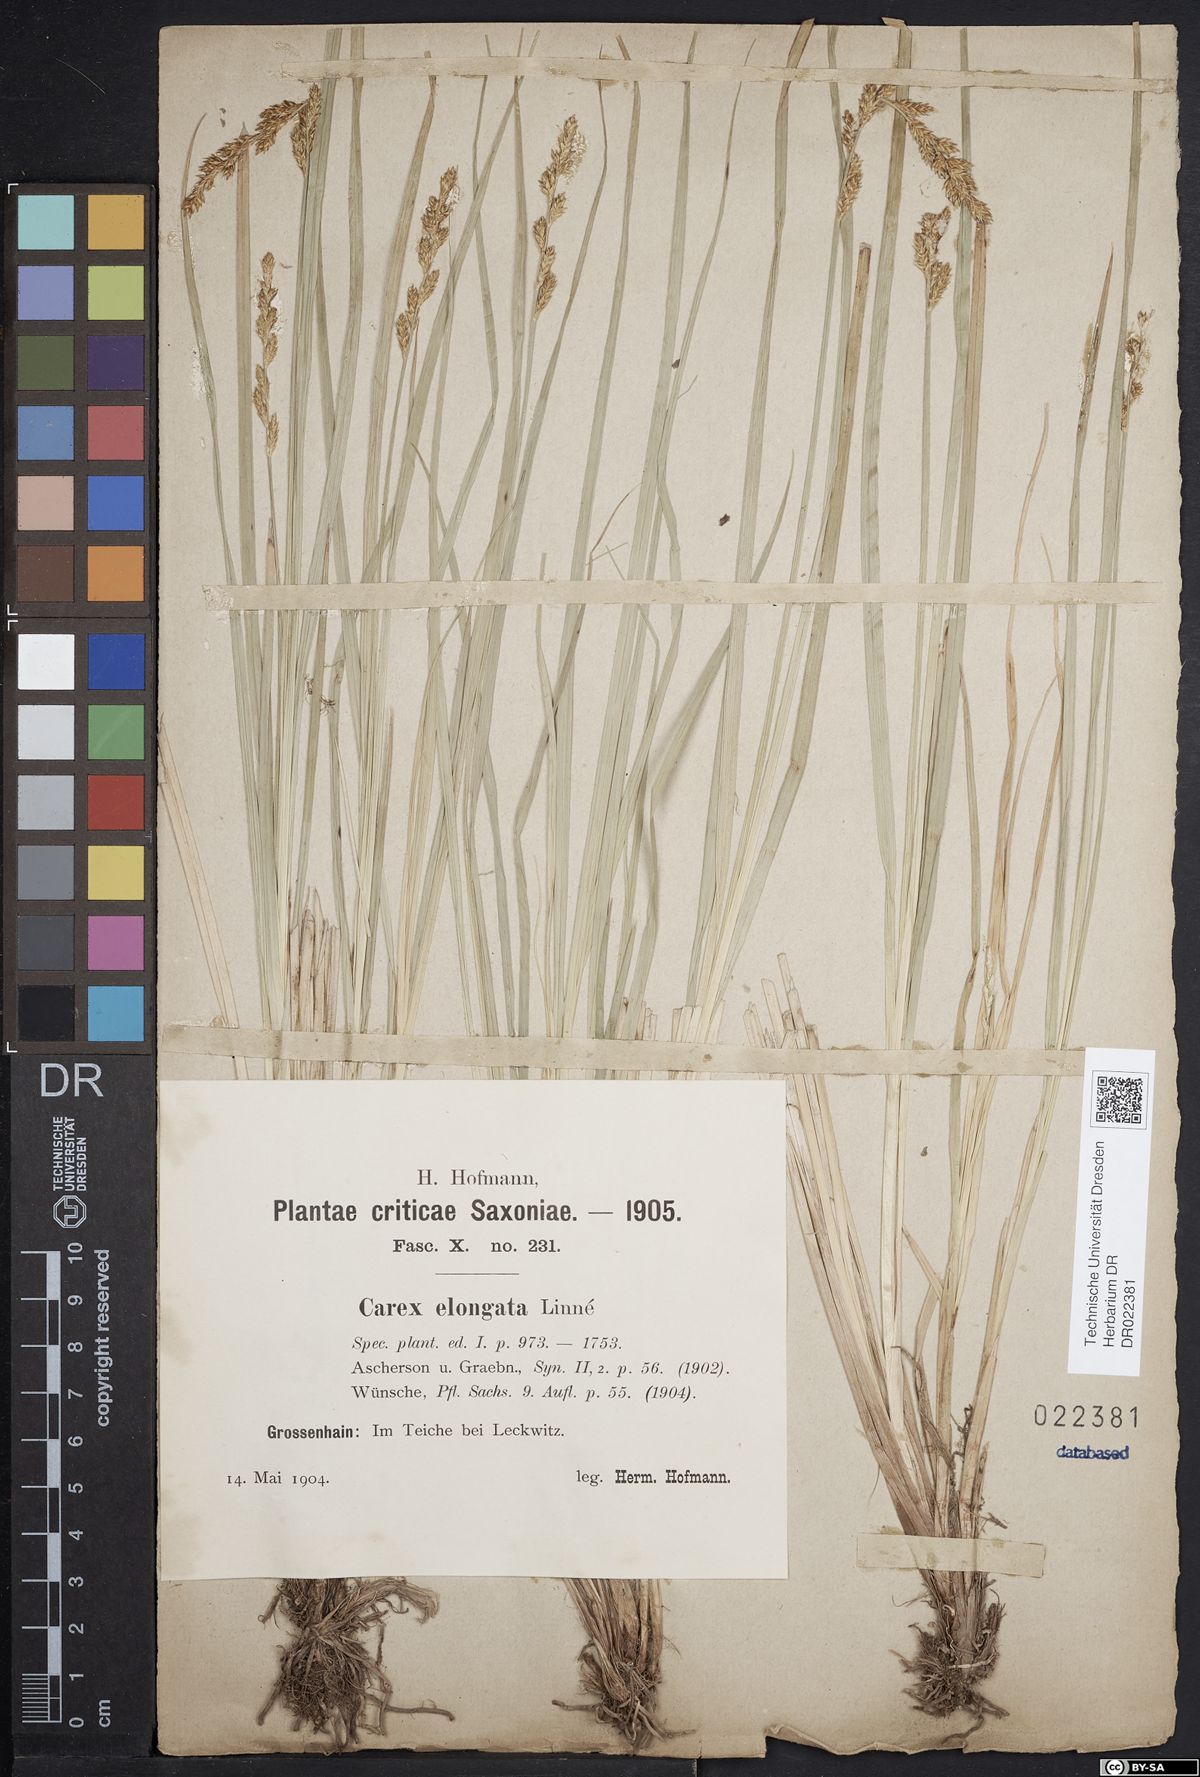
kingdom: Plantae
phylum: Tracheophyta
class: Liliopsida
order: Poales
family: Cyperaceae
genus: Carex
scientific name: Carex elongata
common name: Elongated sedge
